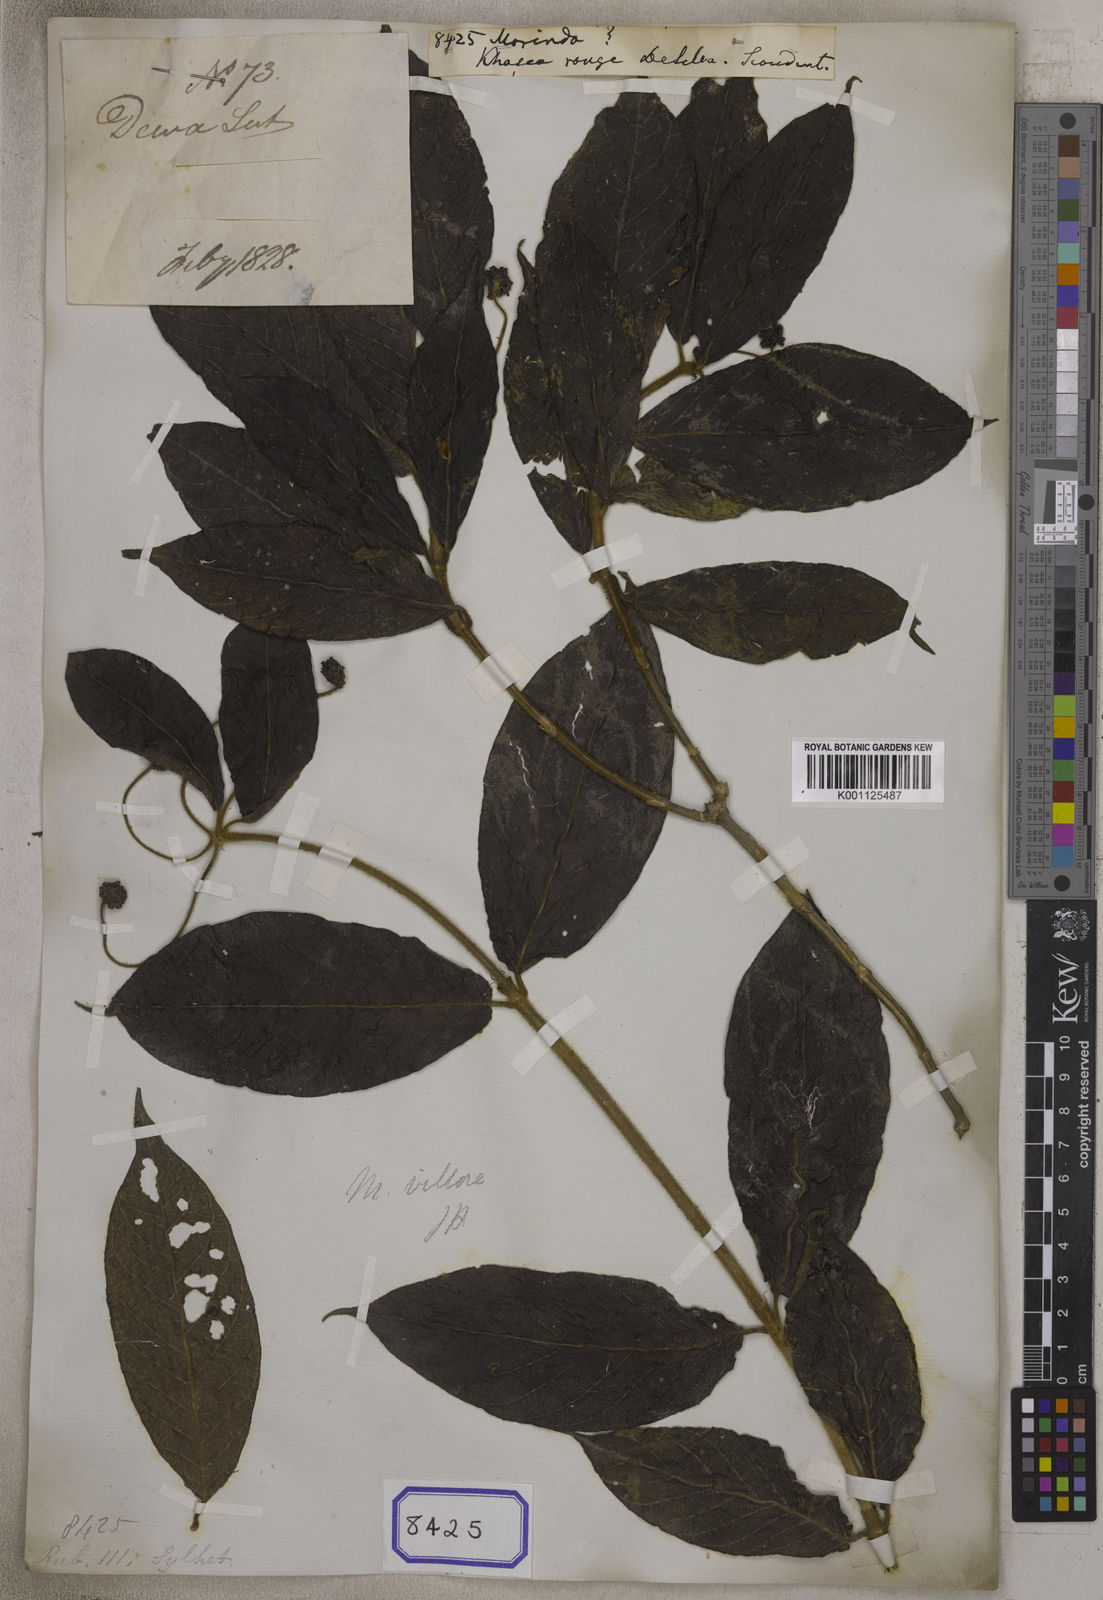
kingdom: Plantae
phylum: Tracheophyta
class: Magnoliopsida
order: Gentianales
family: Rubiaceae
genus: Morinda
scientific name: Morinda
